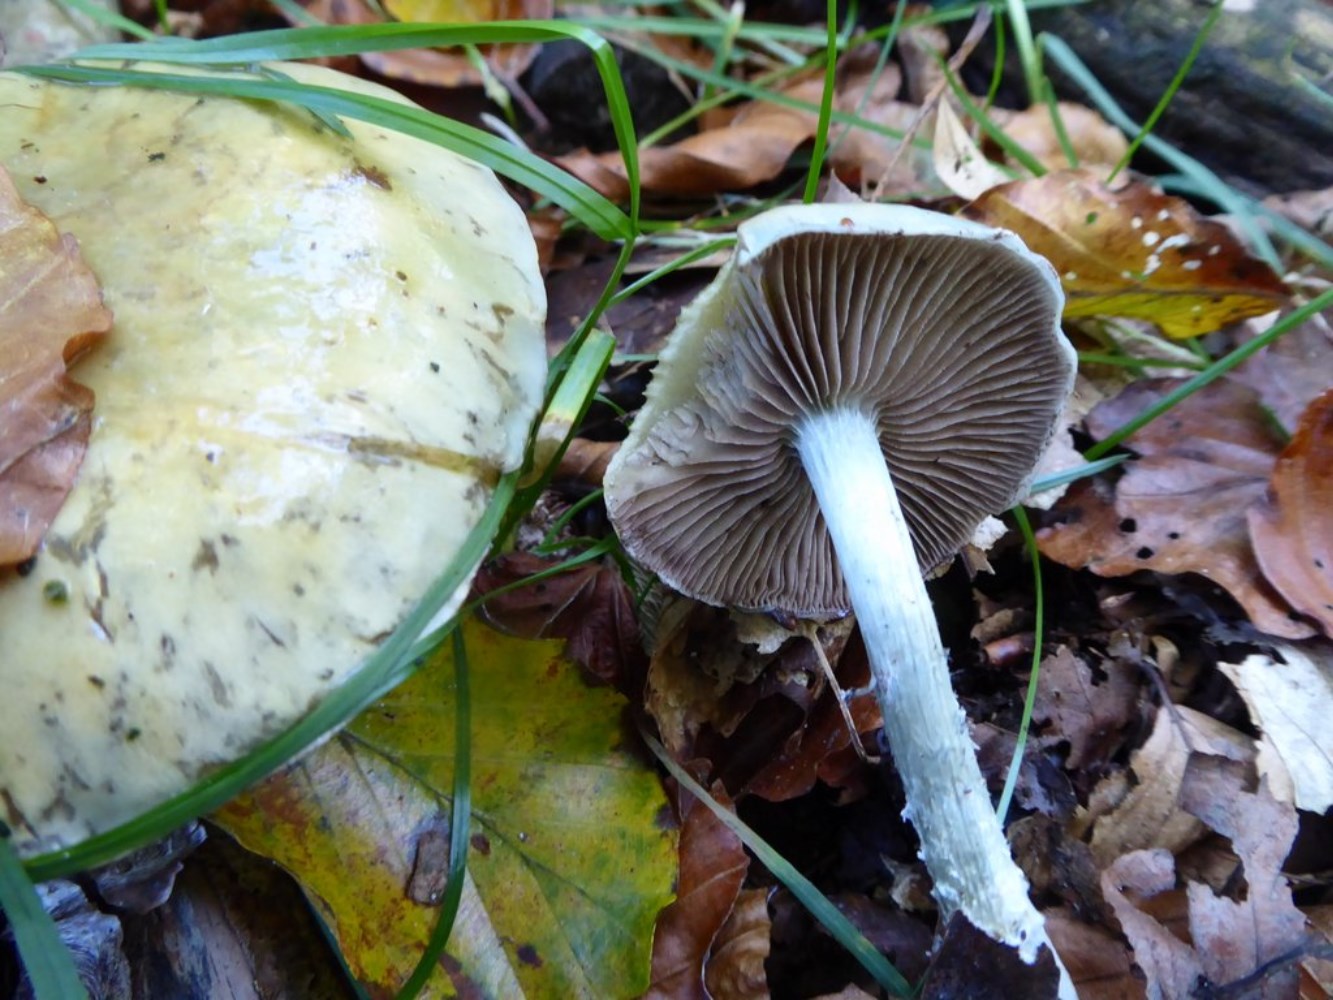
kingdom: Fungi
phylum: Basidiomycota
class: Agaricomycetes
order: Agaricales
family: Strophariaceae
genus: Stropharia
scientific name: Stropharia cyanea
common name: blågrøn bredblad
